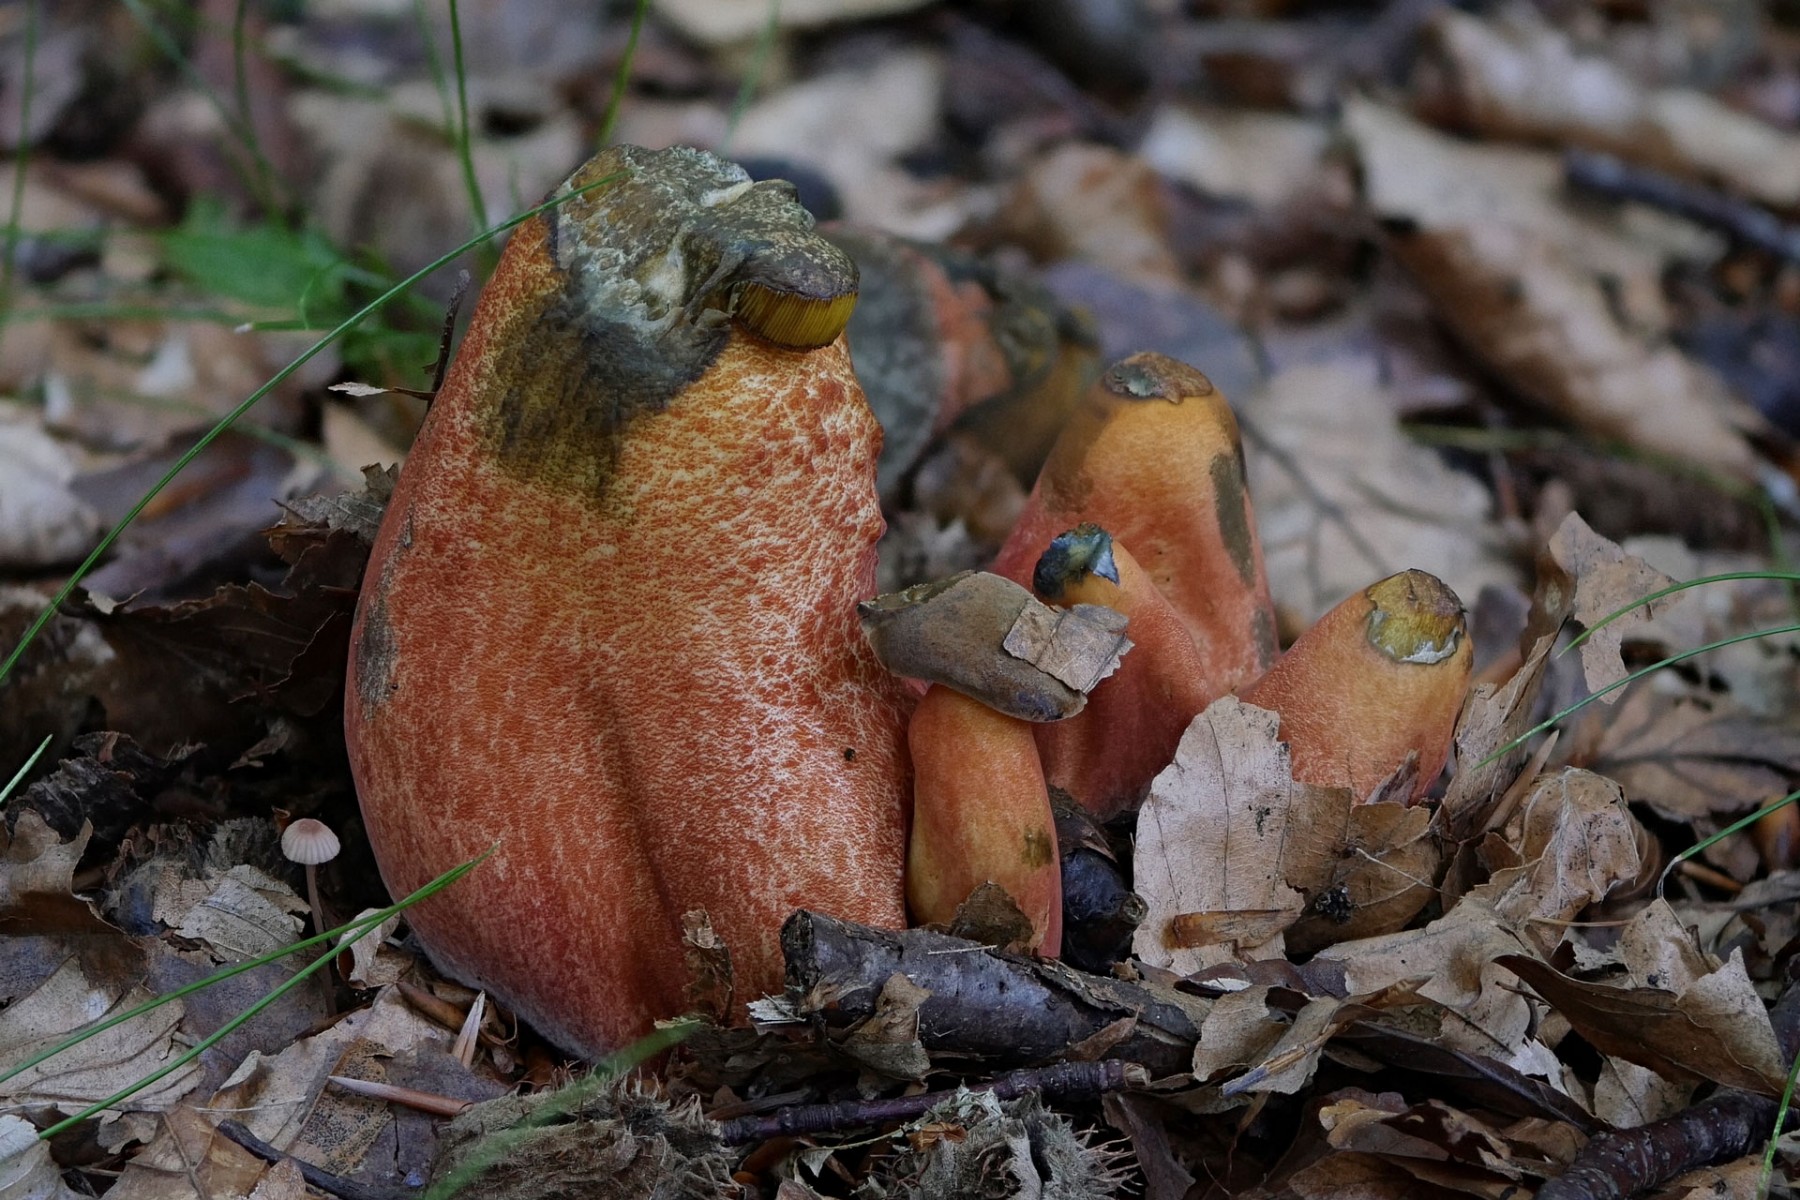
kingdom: Fungi
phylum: Basidiomycota
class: Agaricomycetes
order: Boletales
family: Boletaceae
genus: Neoboletus
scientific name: Neoboletus erythropus
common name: punktstokket indigorørhat
